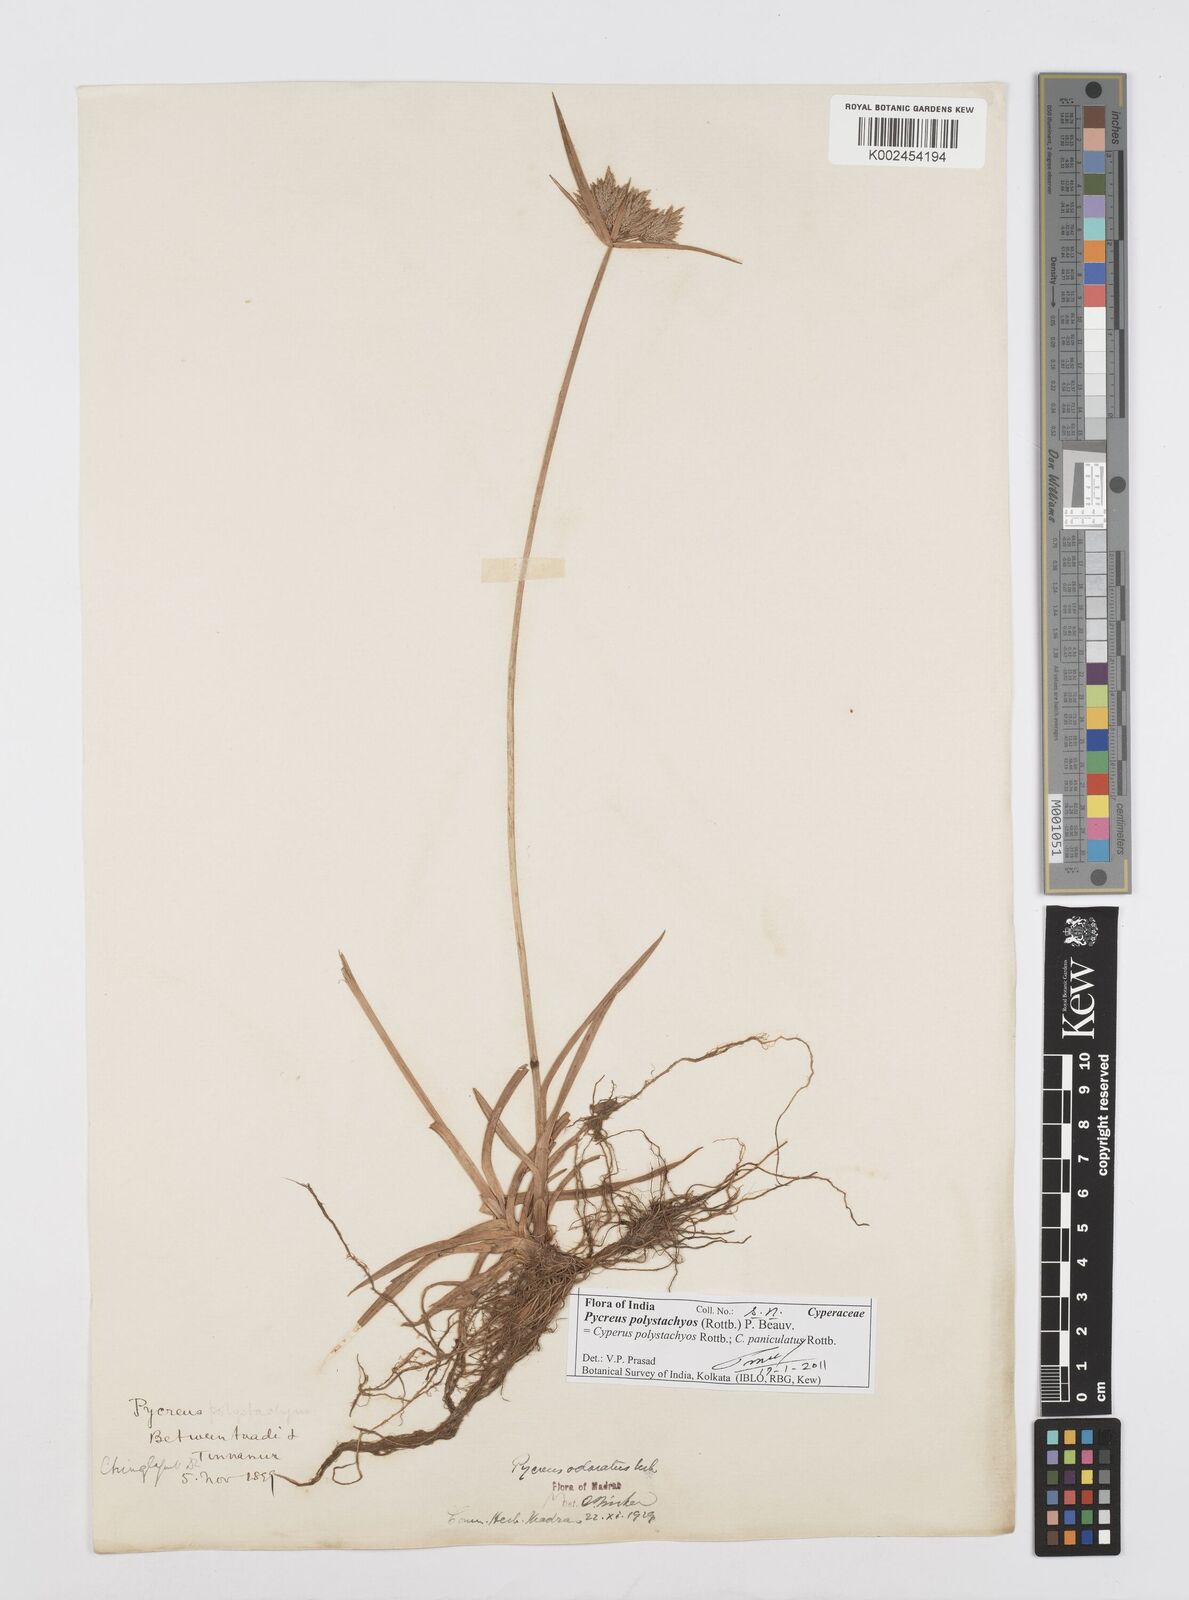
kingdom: Plantae
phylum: Tracheophyta
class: Liliopsida
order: Poales
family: Cyperaceae
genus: Cyperus
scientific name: Cyperus polystachyos
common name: Bunchy flat sedge
